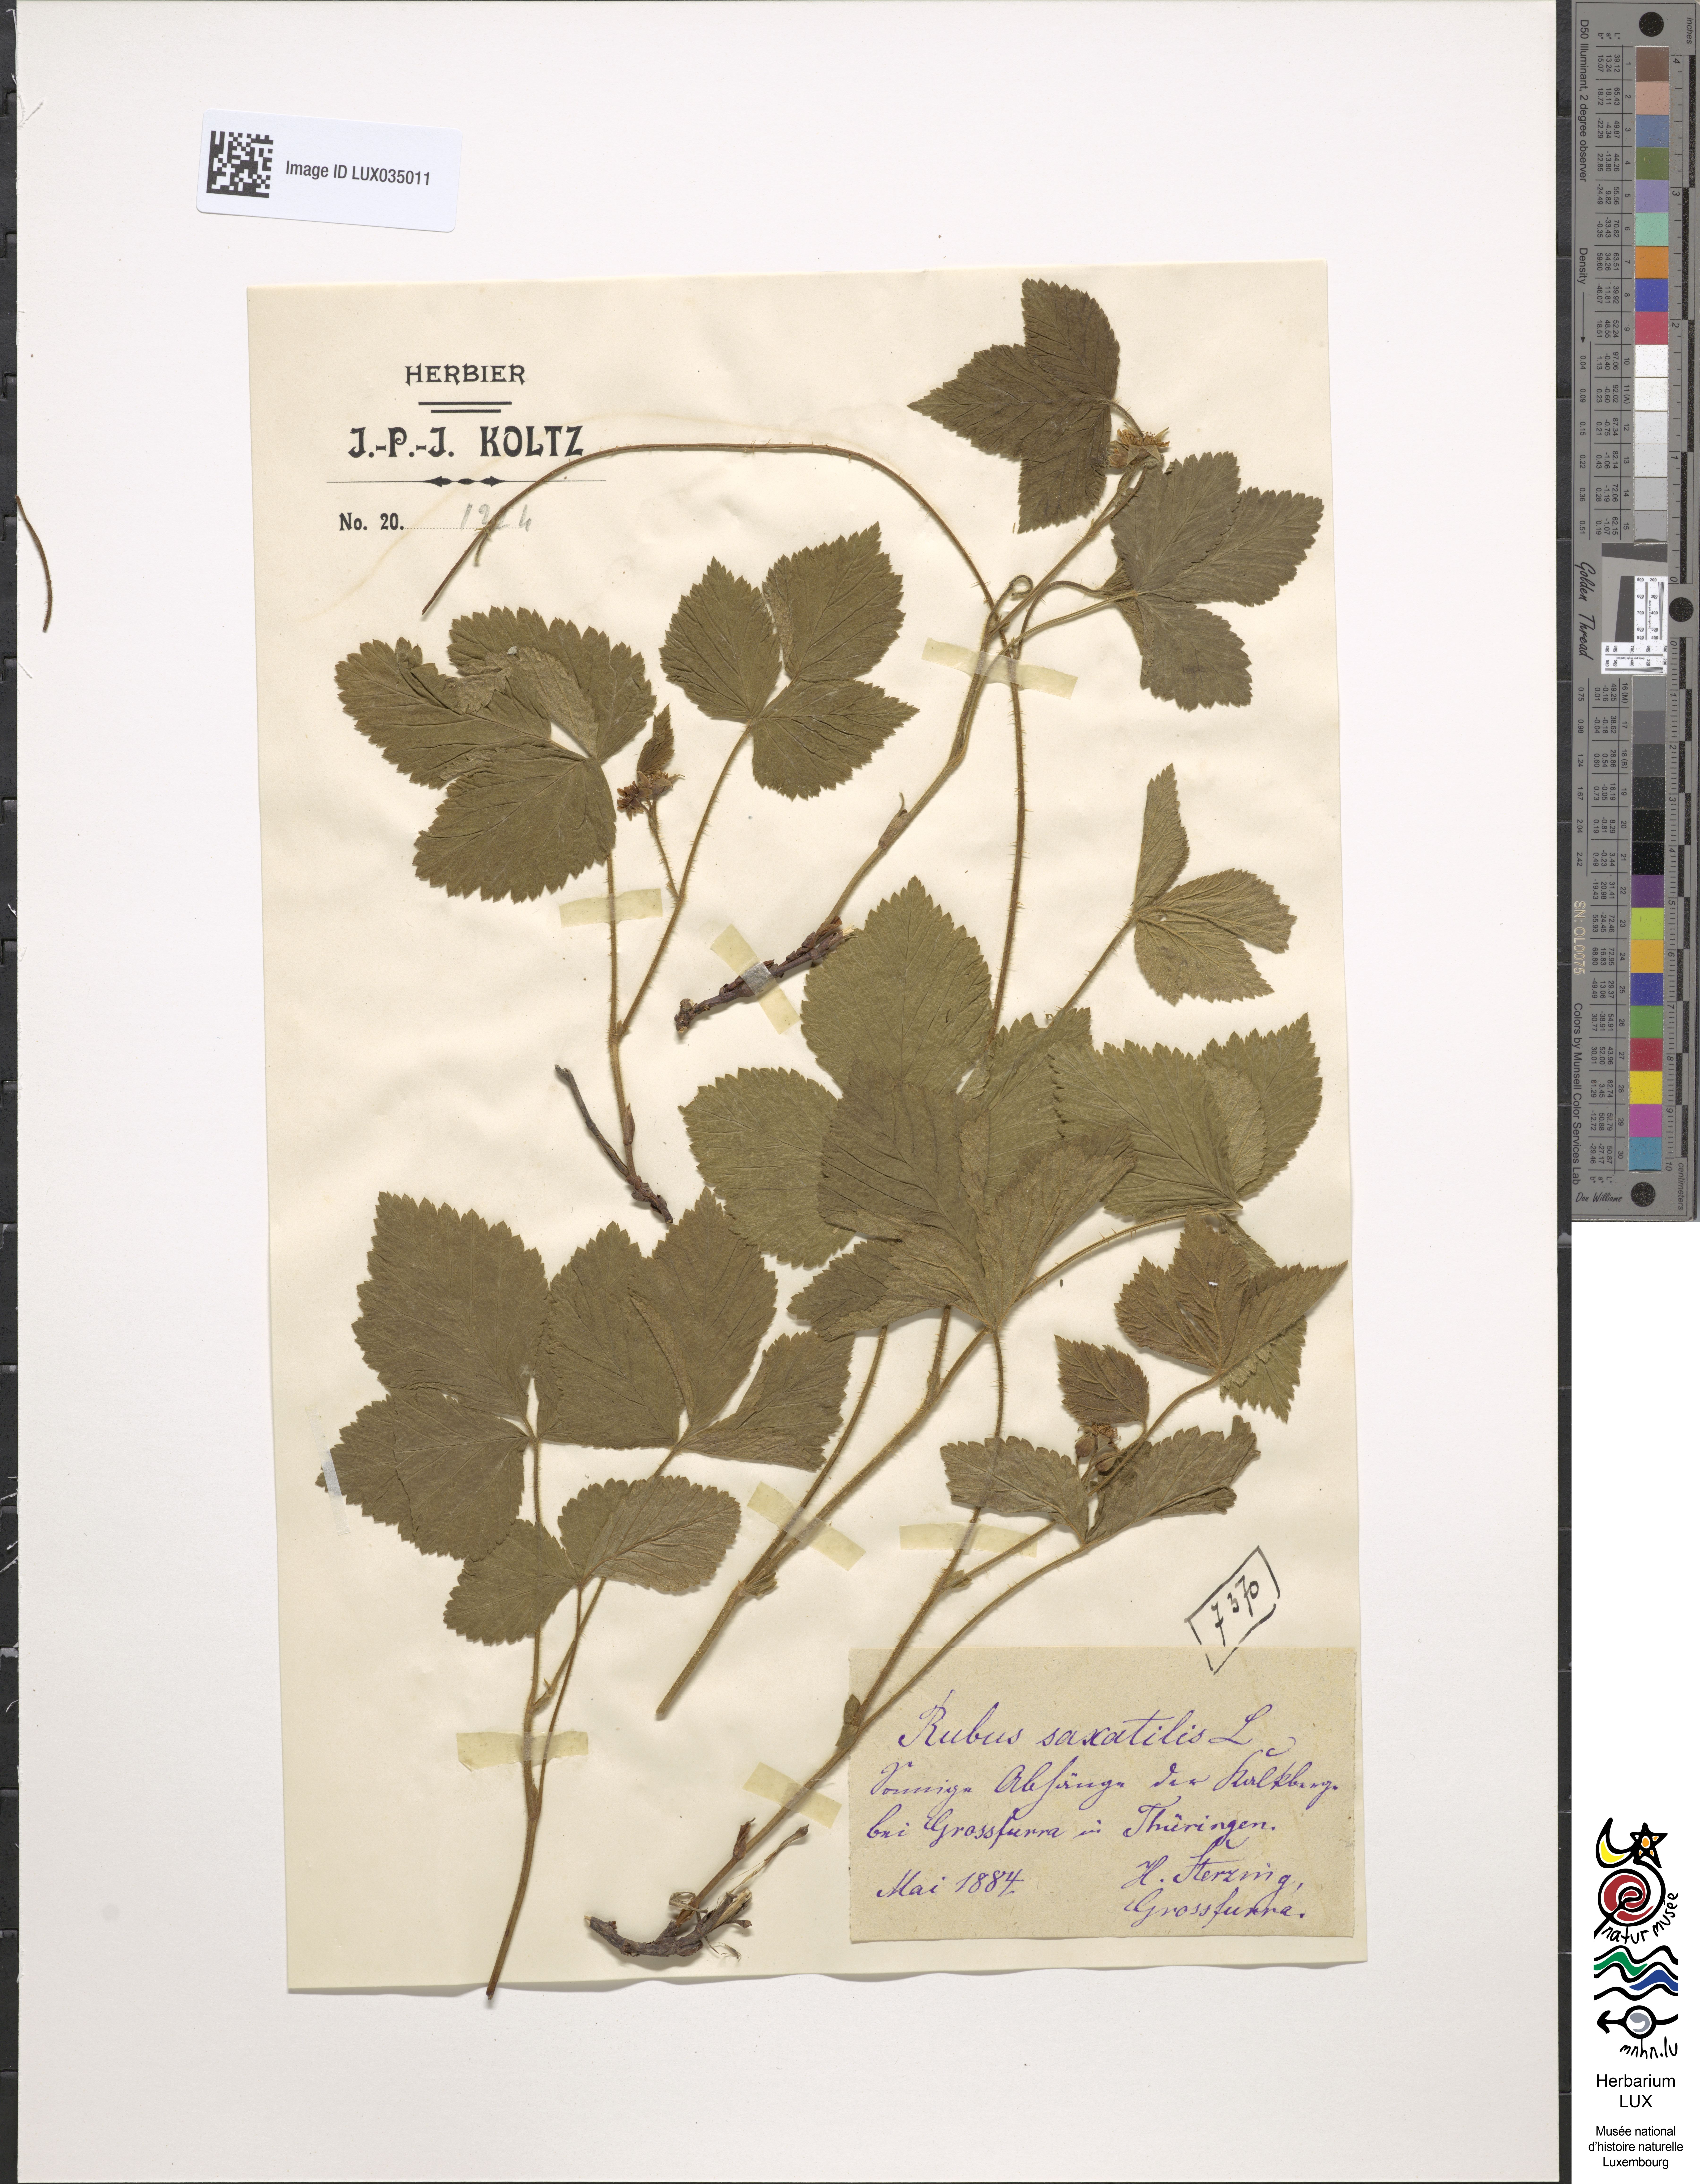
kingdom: Plantae
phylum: Tracheophyta
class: Magnoliopsida
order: Rosales
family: Rosaceae
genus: Rubus
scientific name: Rubus saxatilis
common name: Stone bramble
